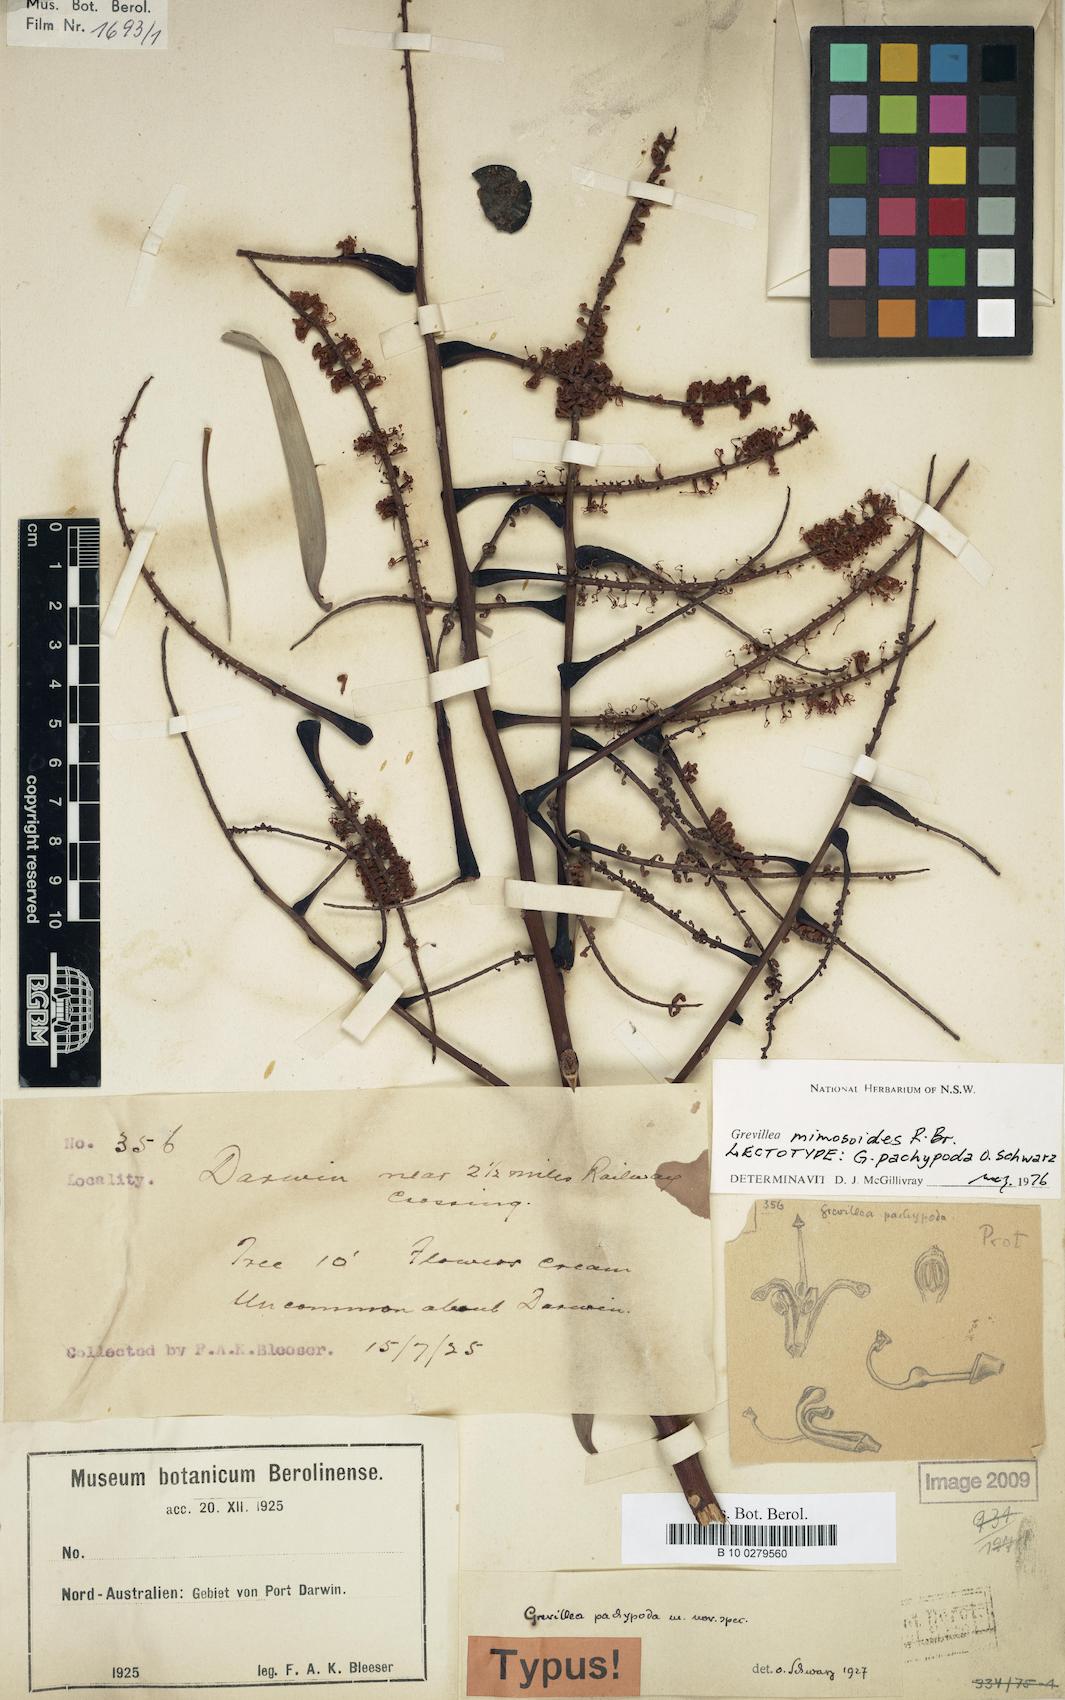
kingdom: Plantae
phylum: Tracheophyta
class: Magnoliopsida
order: Proteales
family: Proteaceae
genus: Grevillea
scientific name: Grevillea mimosoides
